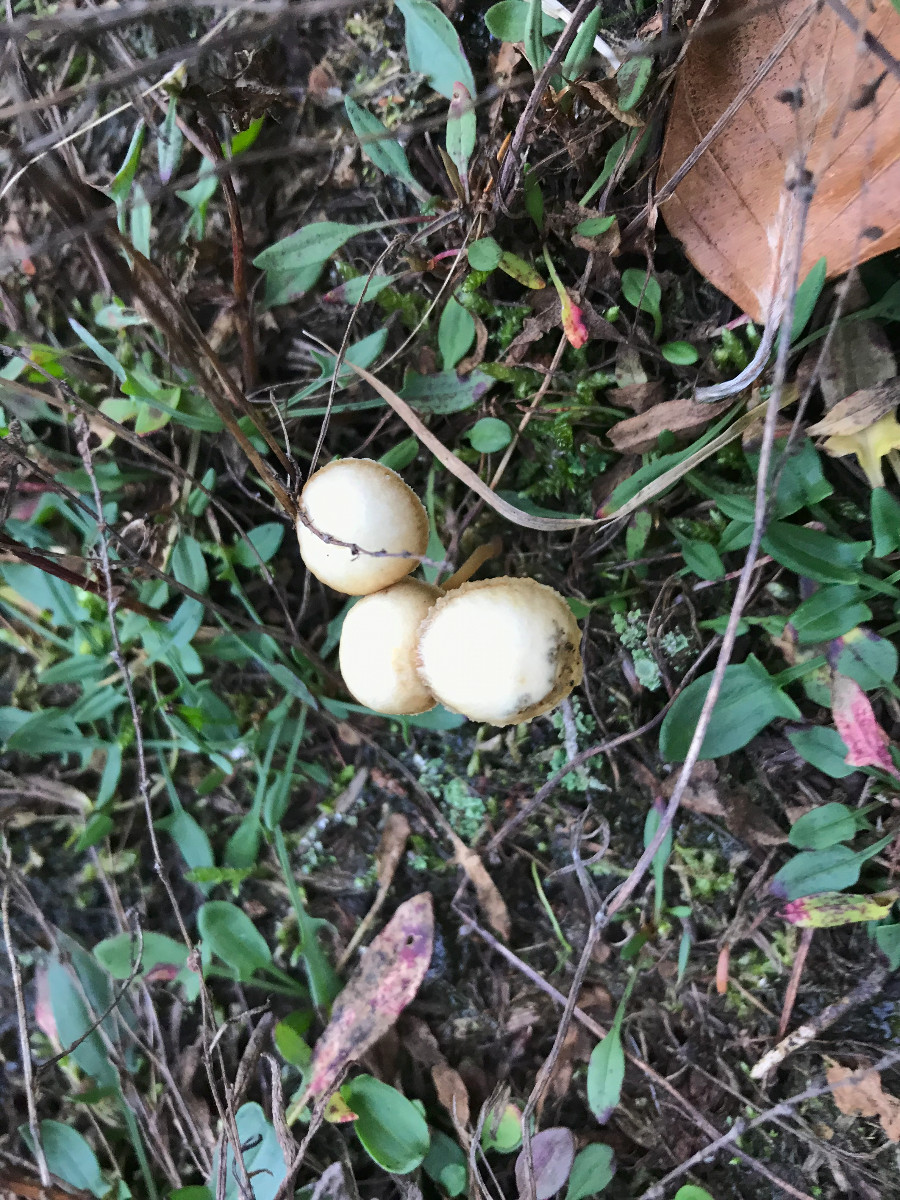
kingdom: Fungi
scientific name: Fungi
